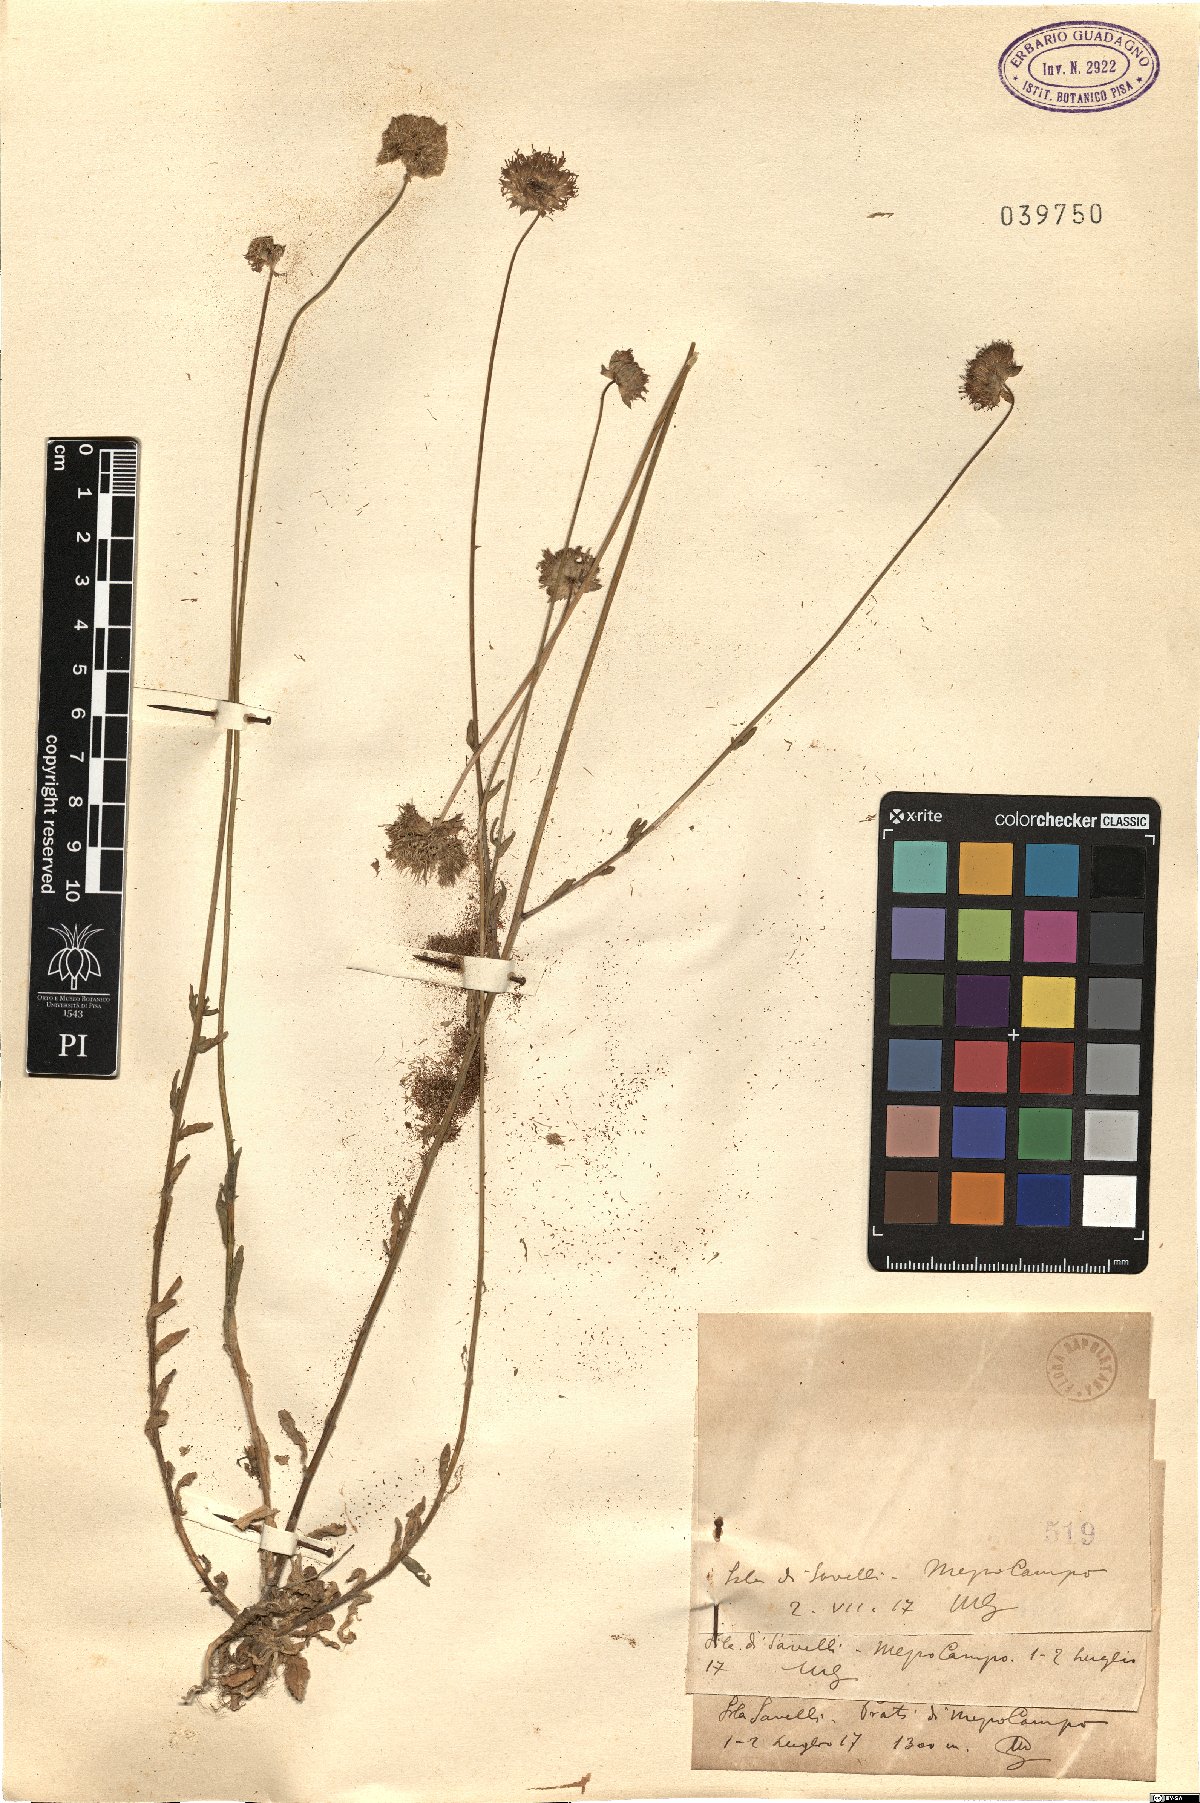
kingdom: Plantae
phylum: Tracheophyta
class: Magnoliopsida
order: Asterales
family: Campanulaceae
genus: Jasione
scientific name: Jasione
